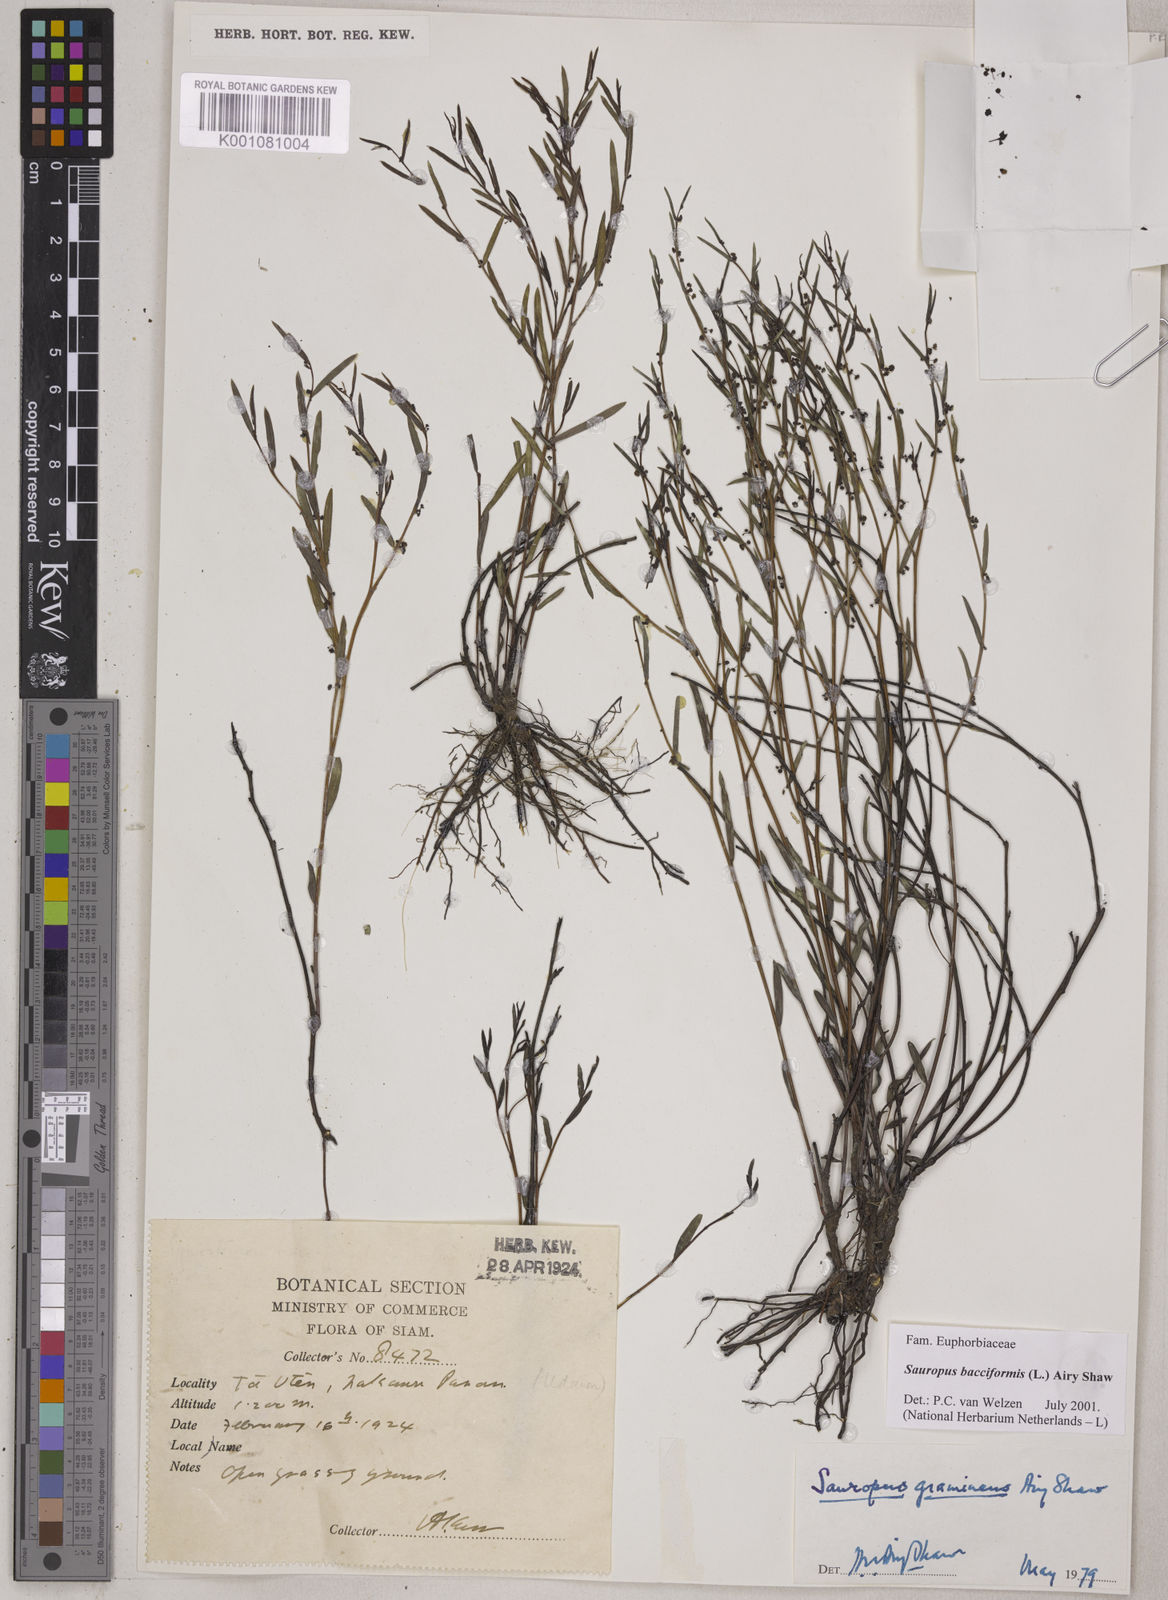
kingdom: Plantae
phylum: Tracheophyta
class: Magnoliopsida
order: Malpighiales
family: Phyllanthaceae
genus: Synostemon
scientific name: Synostemon bacciformis
